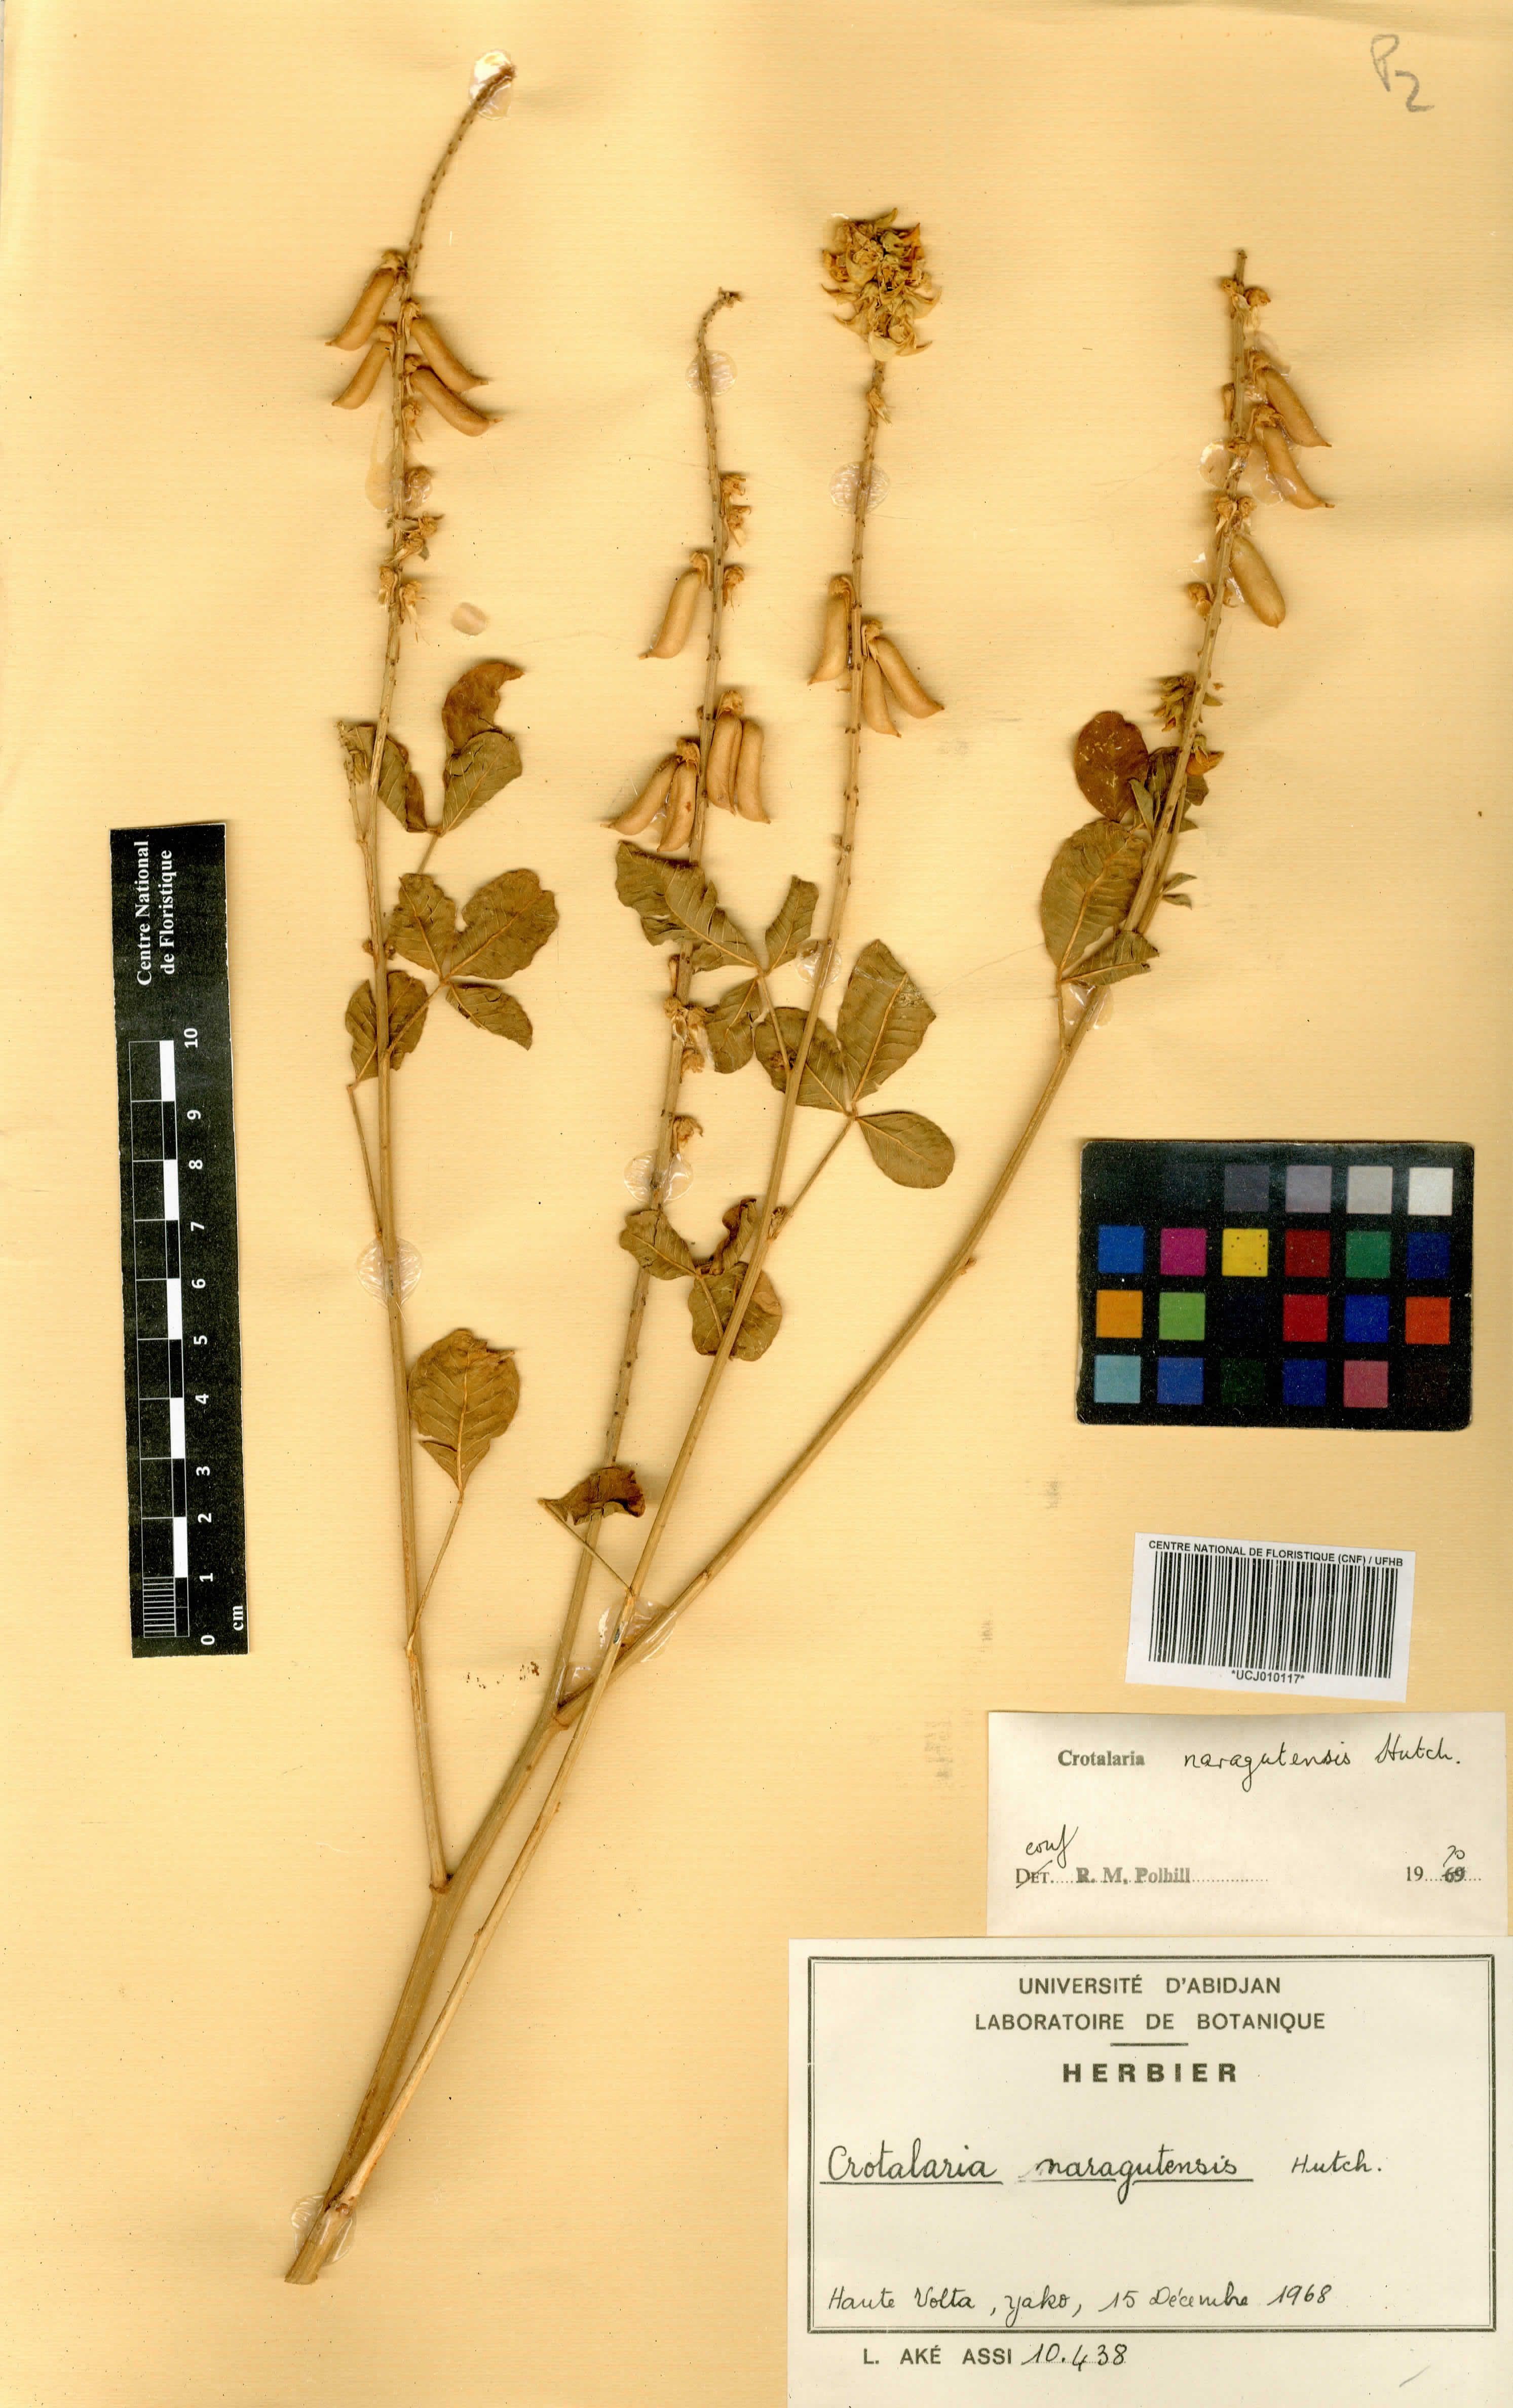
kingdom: Plantae
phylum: Tracheophyta
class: Magnoliopsida
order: Fabales
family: Fabaceae
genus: Crotalaria
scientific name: Crotalaria naragutensis
